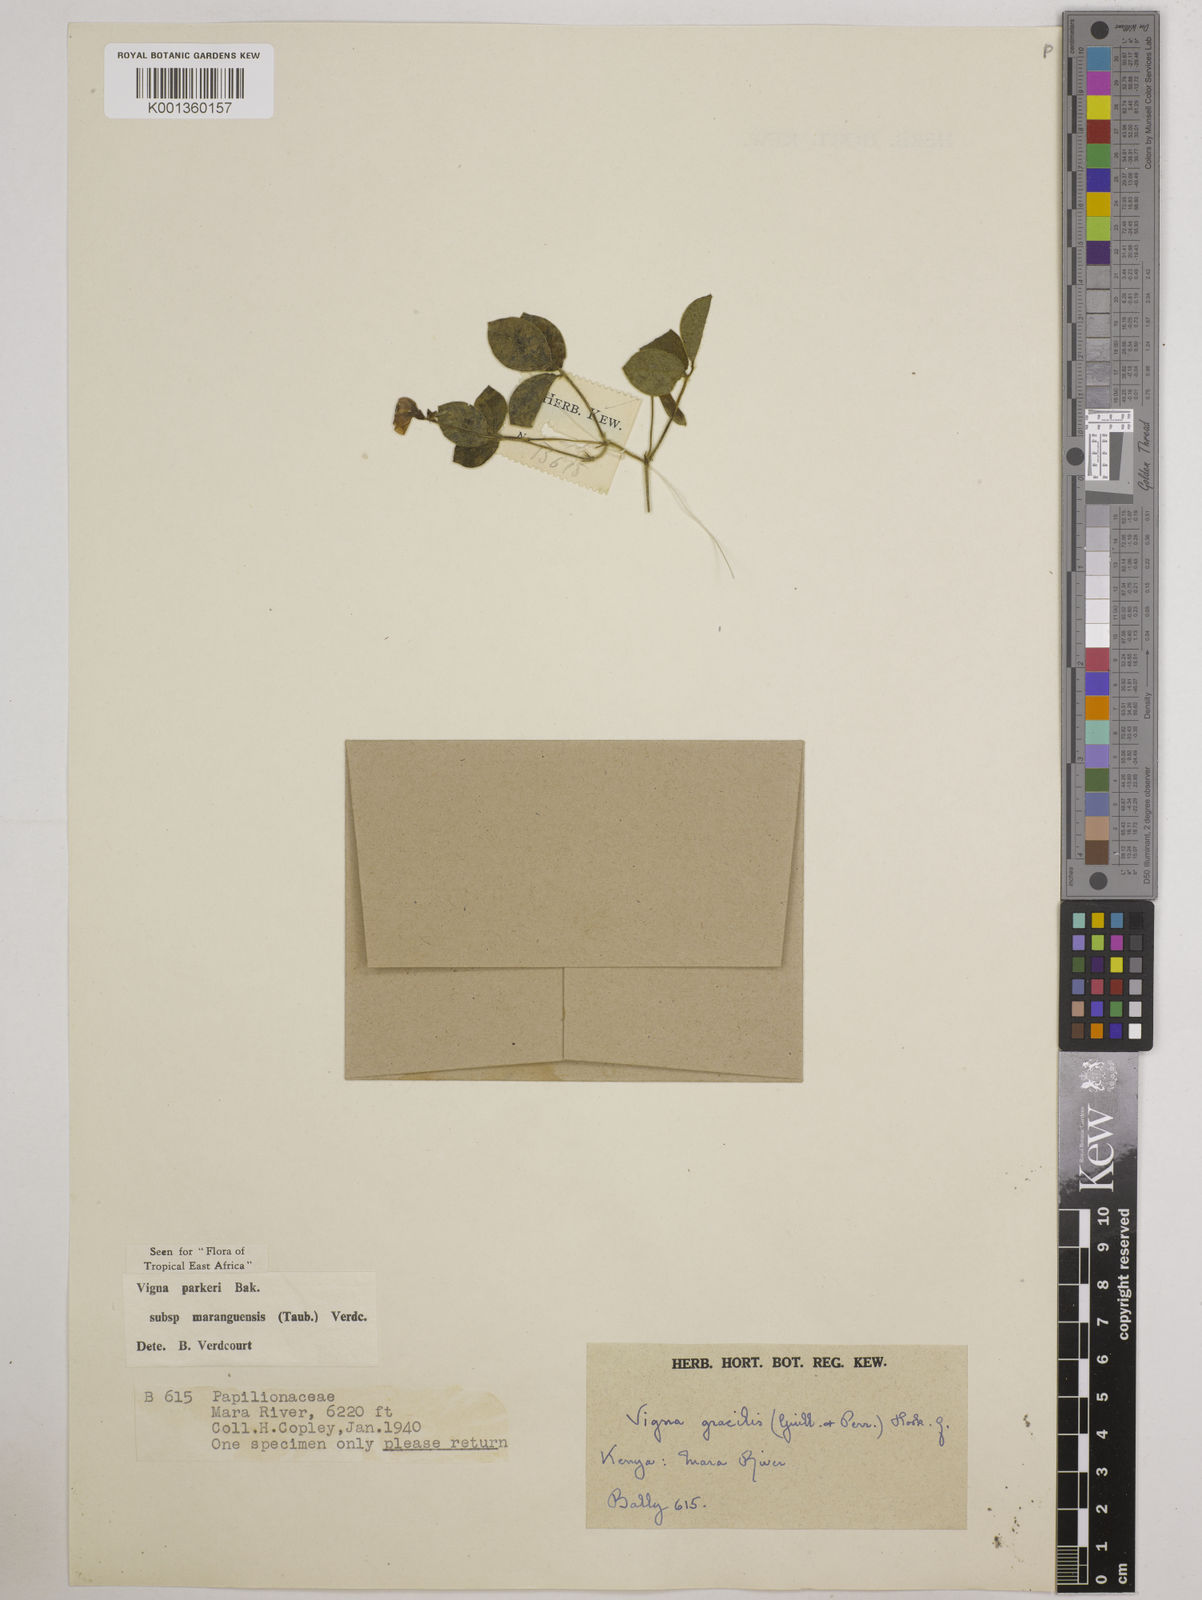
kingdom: Plantae
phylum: Tracheophyta
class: Magnoliopsida
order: Fabales
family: Fabaceae
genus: Vigna
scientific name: Vigna
